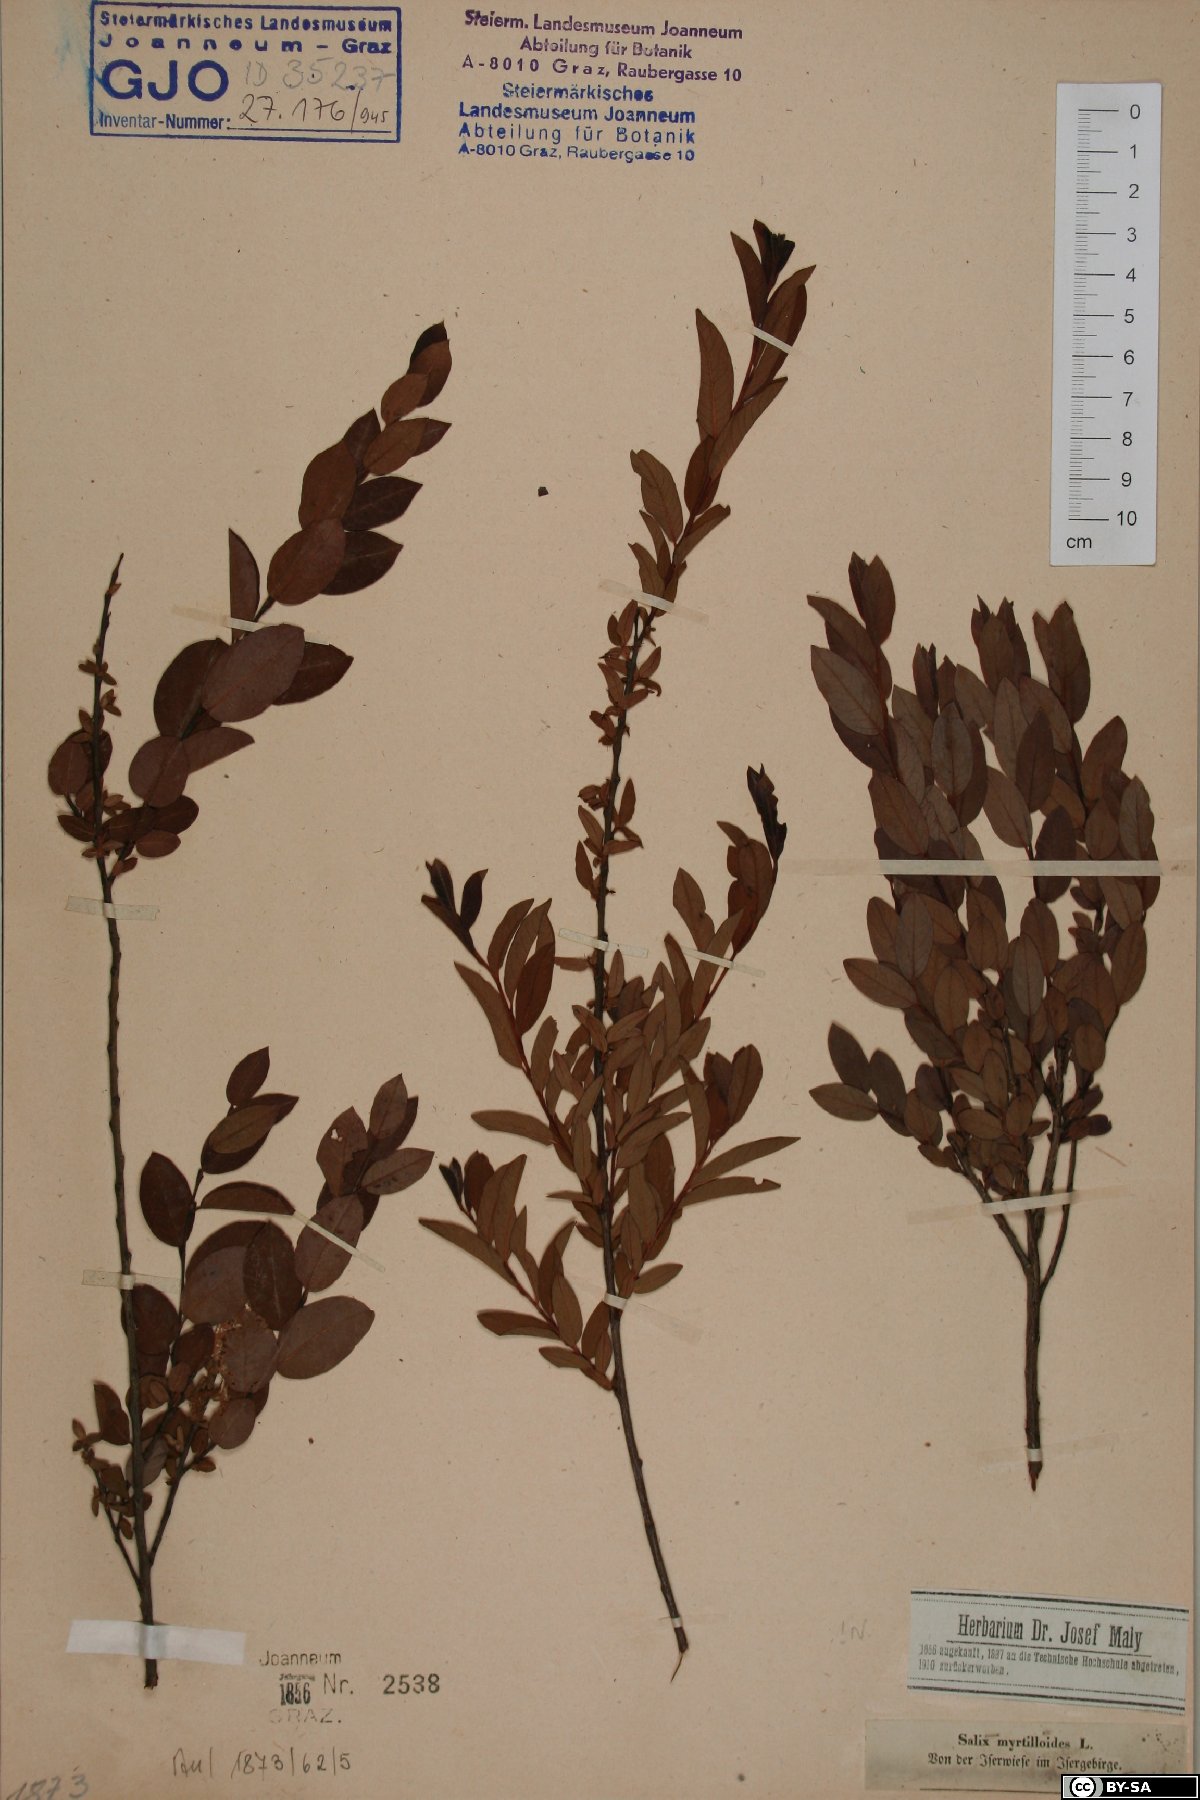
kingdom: Plantae
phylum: Tracheophyta
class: Magnoliopsida
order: Malpighiales
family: Salicaceae
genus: Salix
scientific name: Salix myrtilloides
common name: Myrtle-leaved willow
